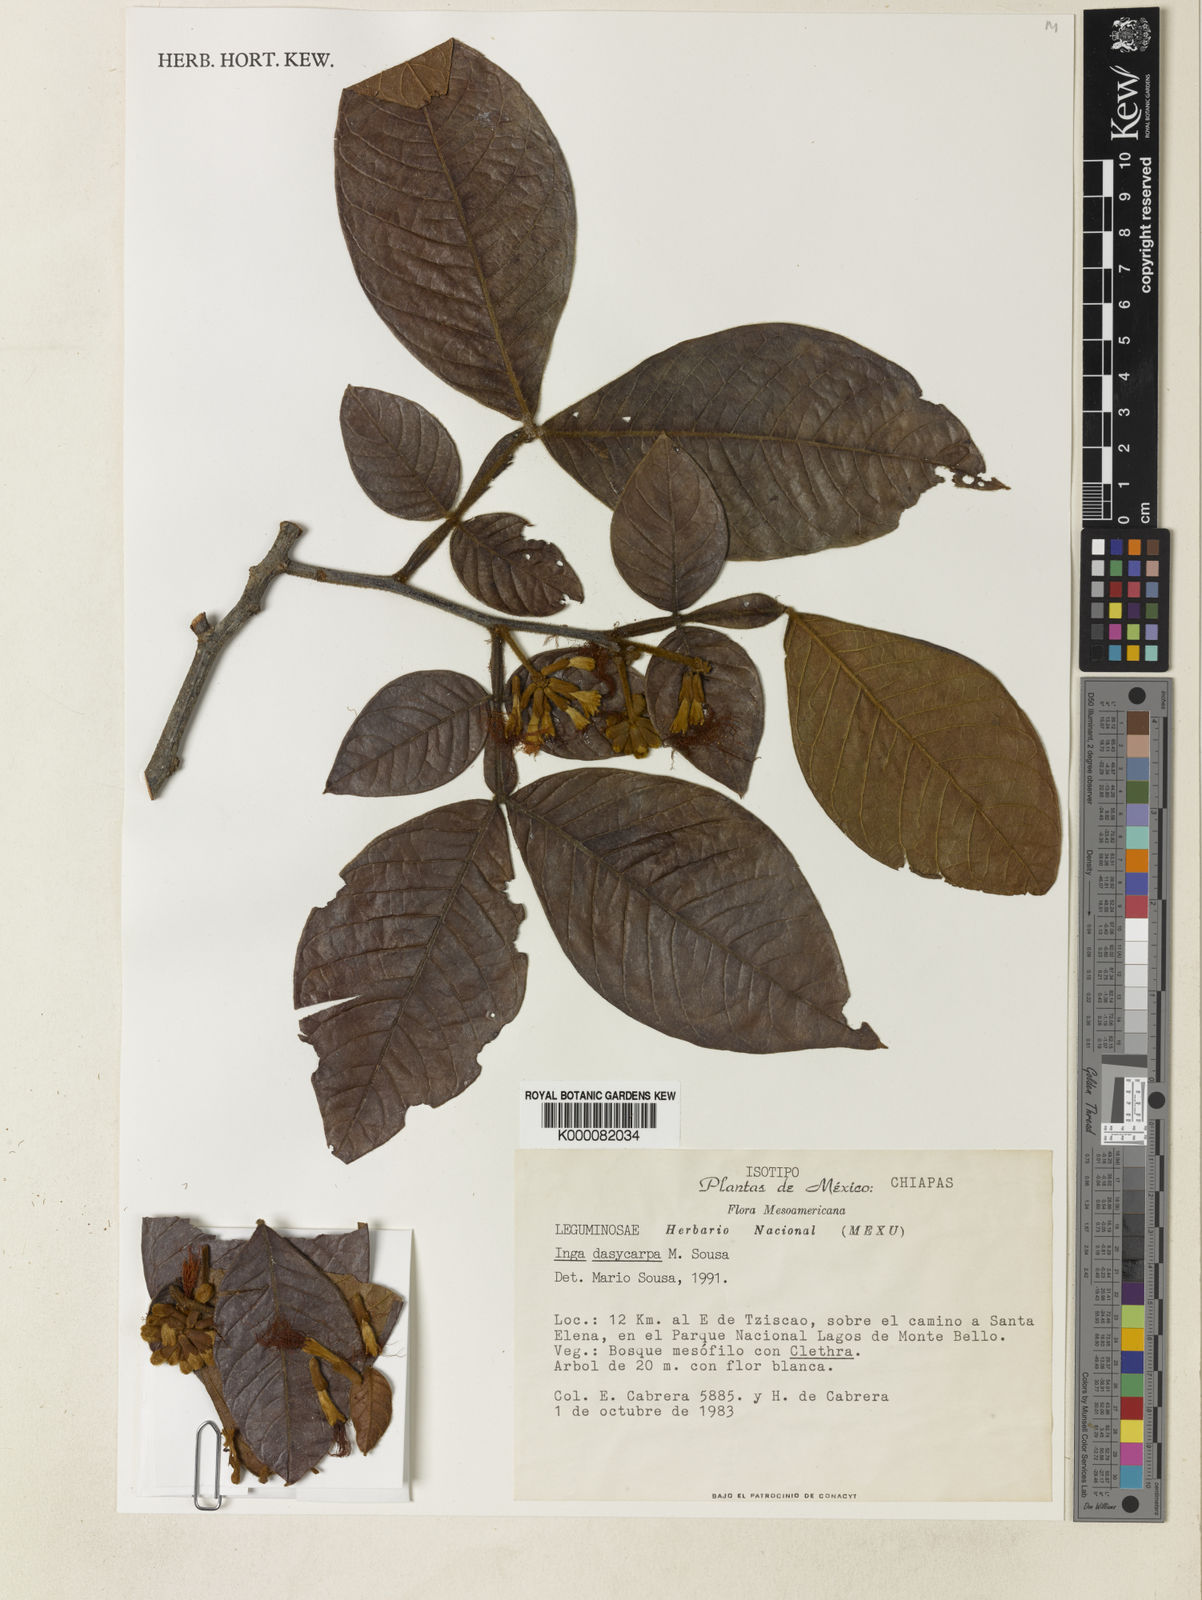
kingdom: Plantae
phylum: Tracheophyta
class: Magnoliopsida
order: Fabales
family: Fabaceae
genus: Inga
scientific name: Inga dasycarpa
